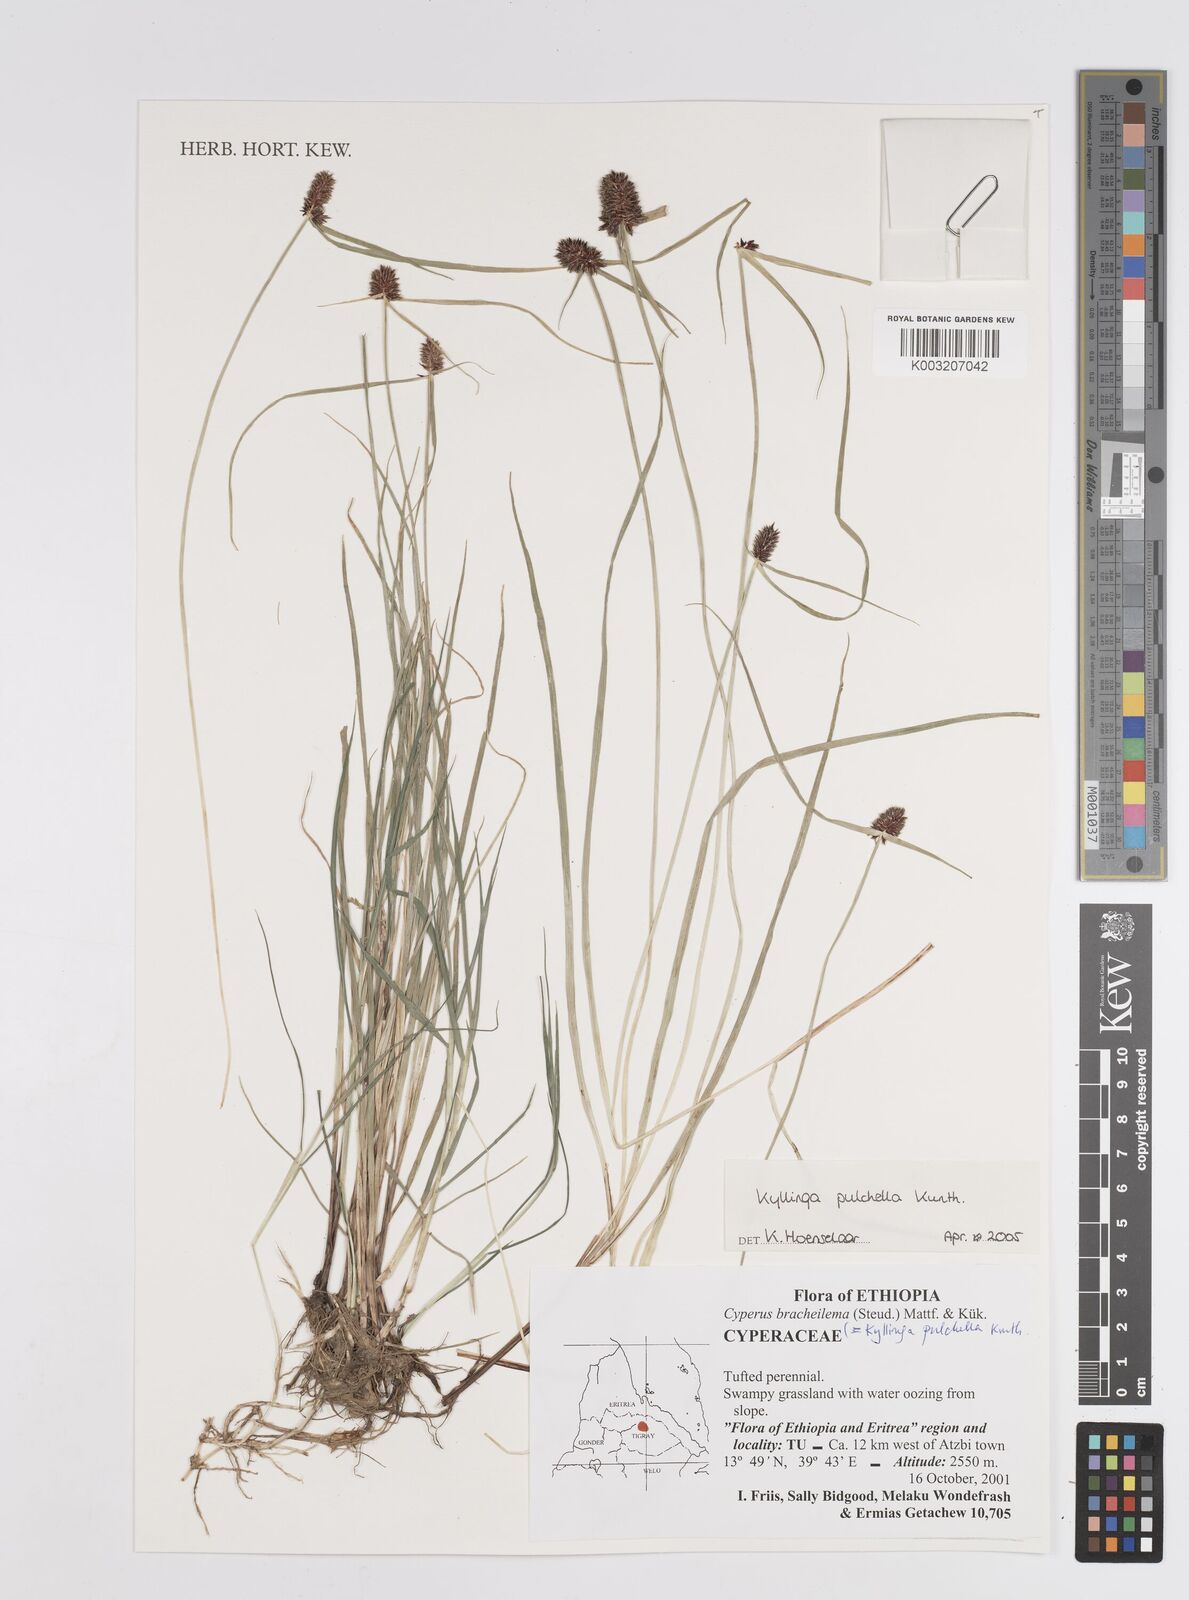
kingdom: Plantae
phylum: Tracheophyta
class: Liliopsida
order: Poales
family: Cyperaceae
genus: Cyperus
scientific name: Cyperus
